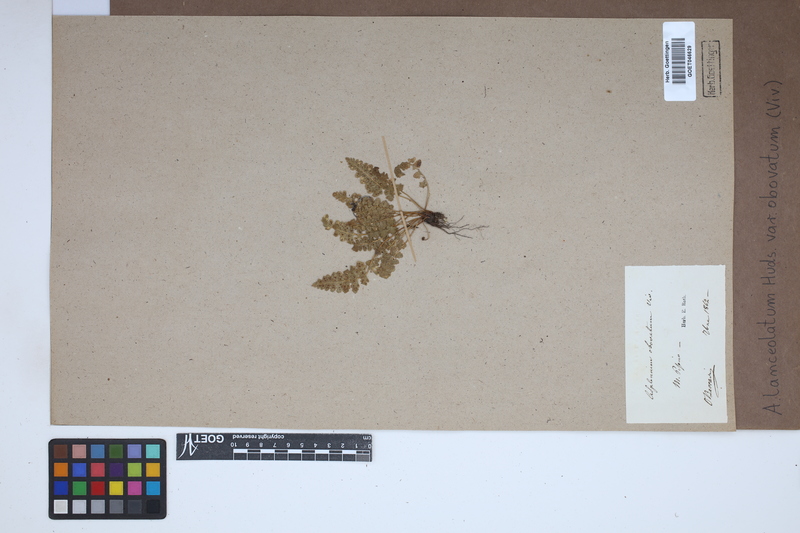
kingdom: Plantae
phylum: Tracheophyta
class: Polypodiopsida
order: Polypodiales
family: Aspleniaceae
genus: Asplenium
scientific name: Asplenium obovatum
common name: Lanceolate spleenwort
